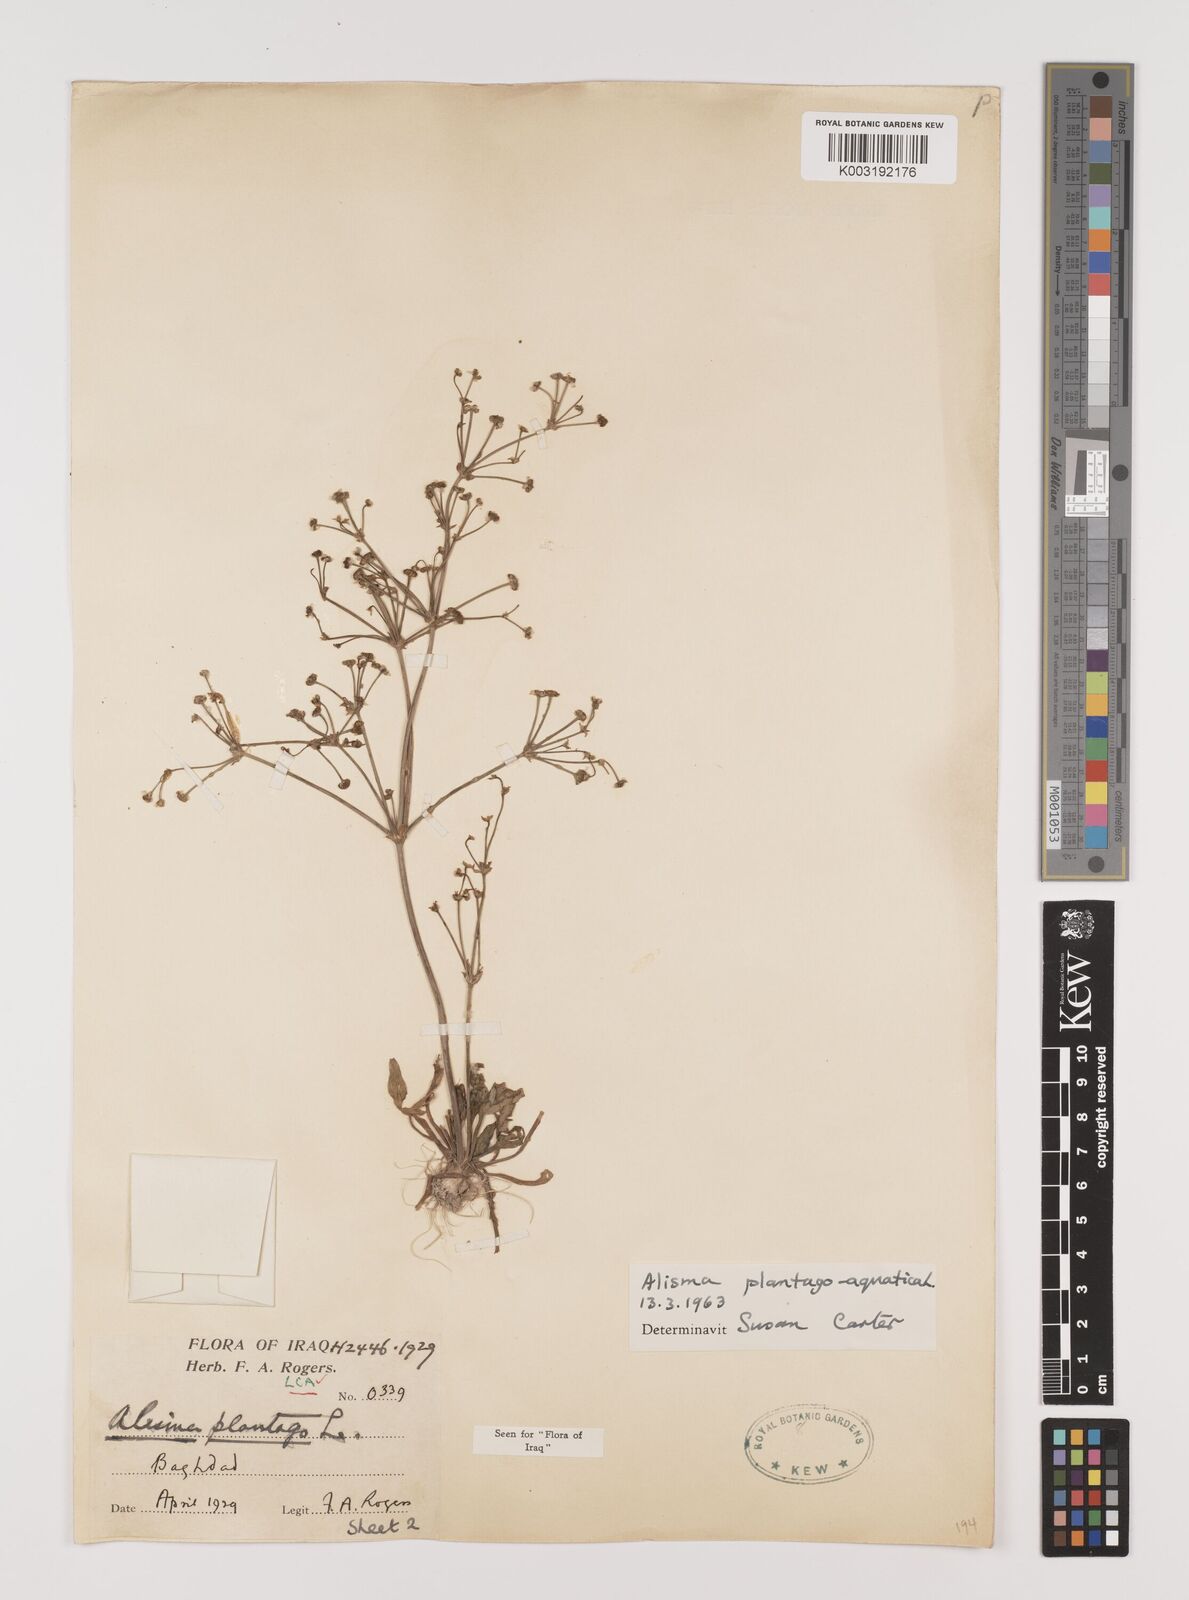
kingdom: Plantae
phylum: Tracheophyta
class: Liliopsida
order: Alismatales
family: Alismataceae
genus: Alisma
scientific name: Alisma plantago-aquatica
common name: Water-plantain
